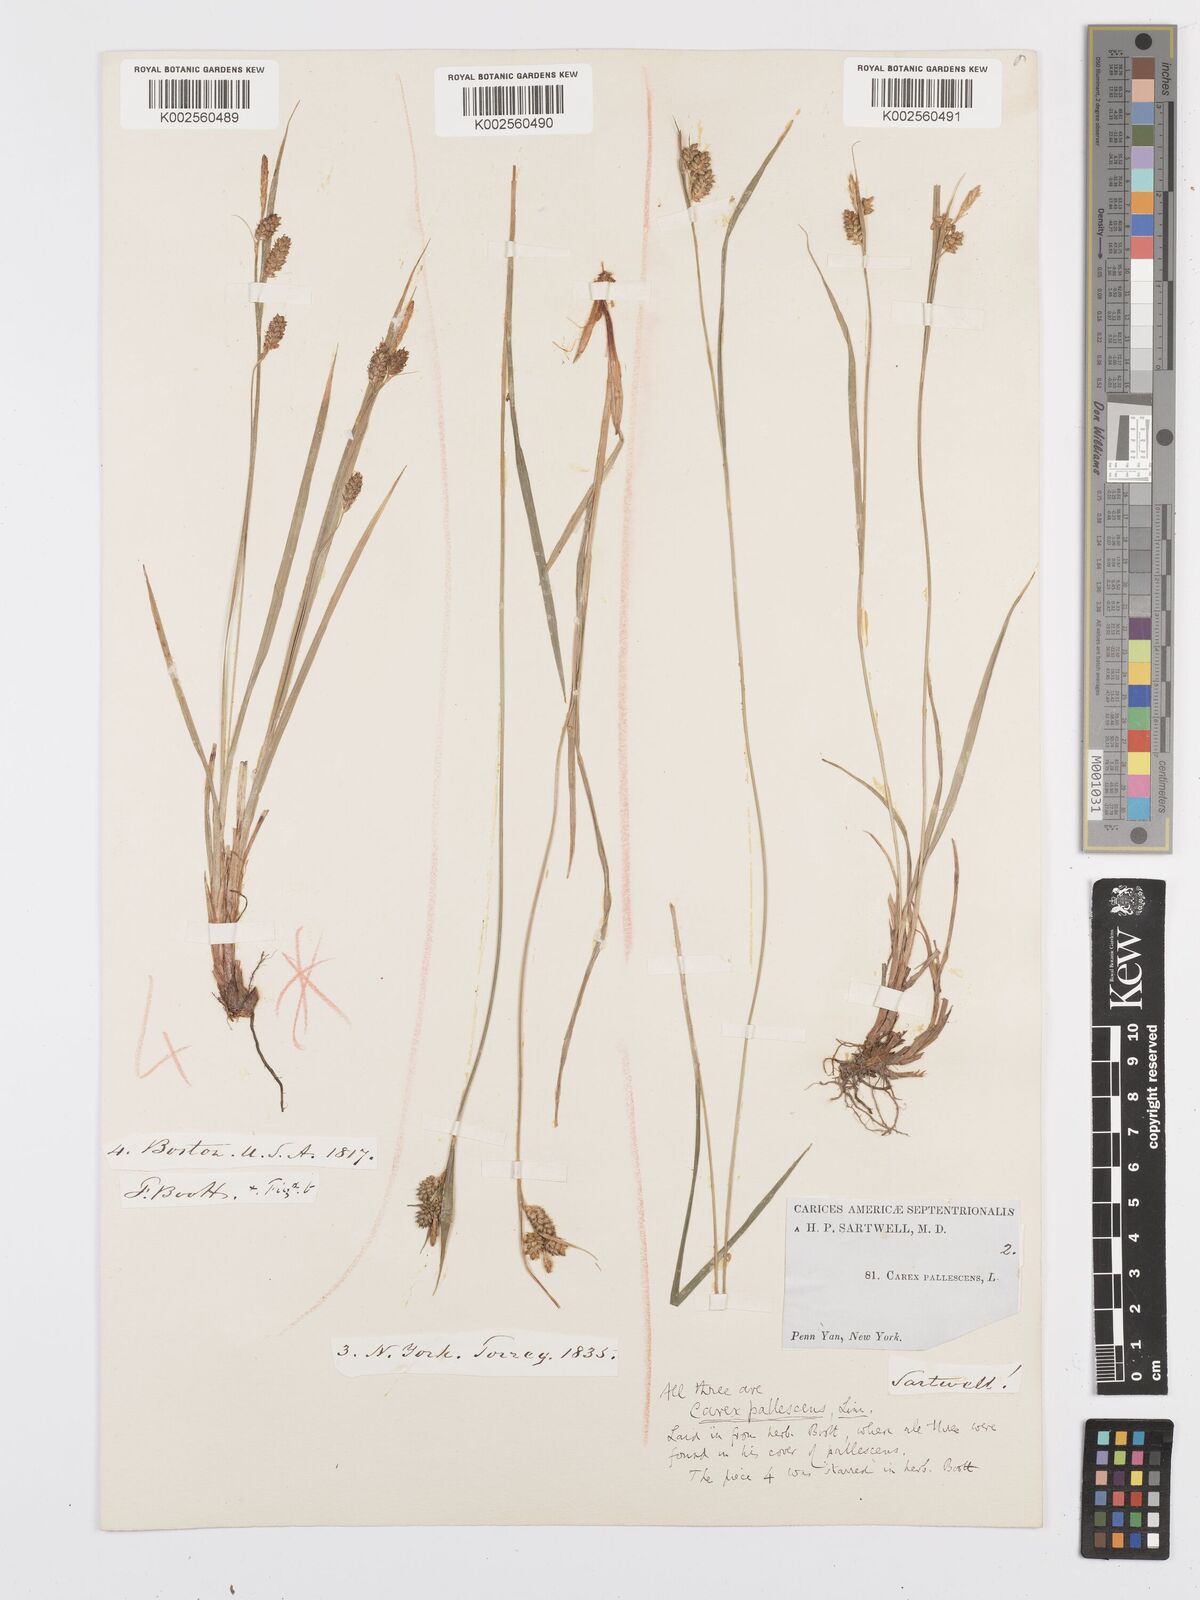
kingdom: Plantae
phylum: Tracheophyta
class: Liliopsida
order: Poales
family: Cyperaceae
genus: Carex
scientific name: Carex pallescens
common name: Pale sedge
